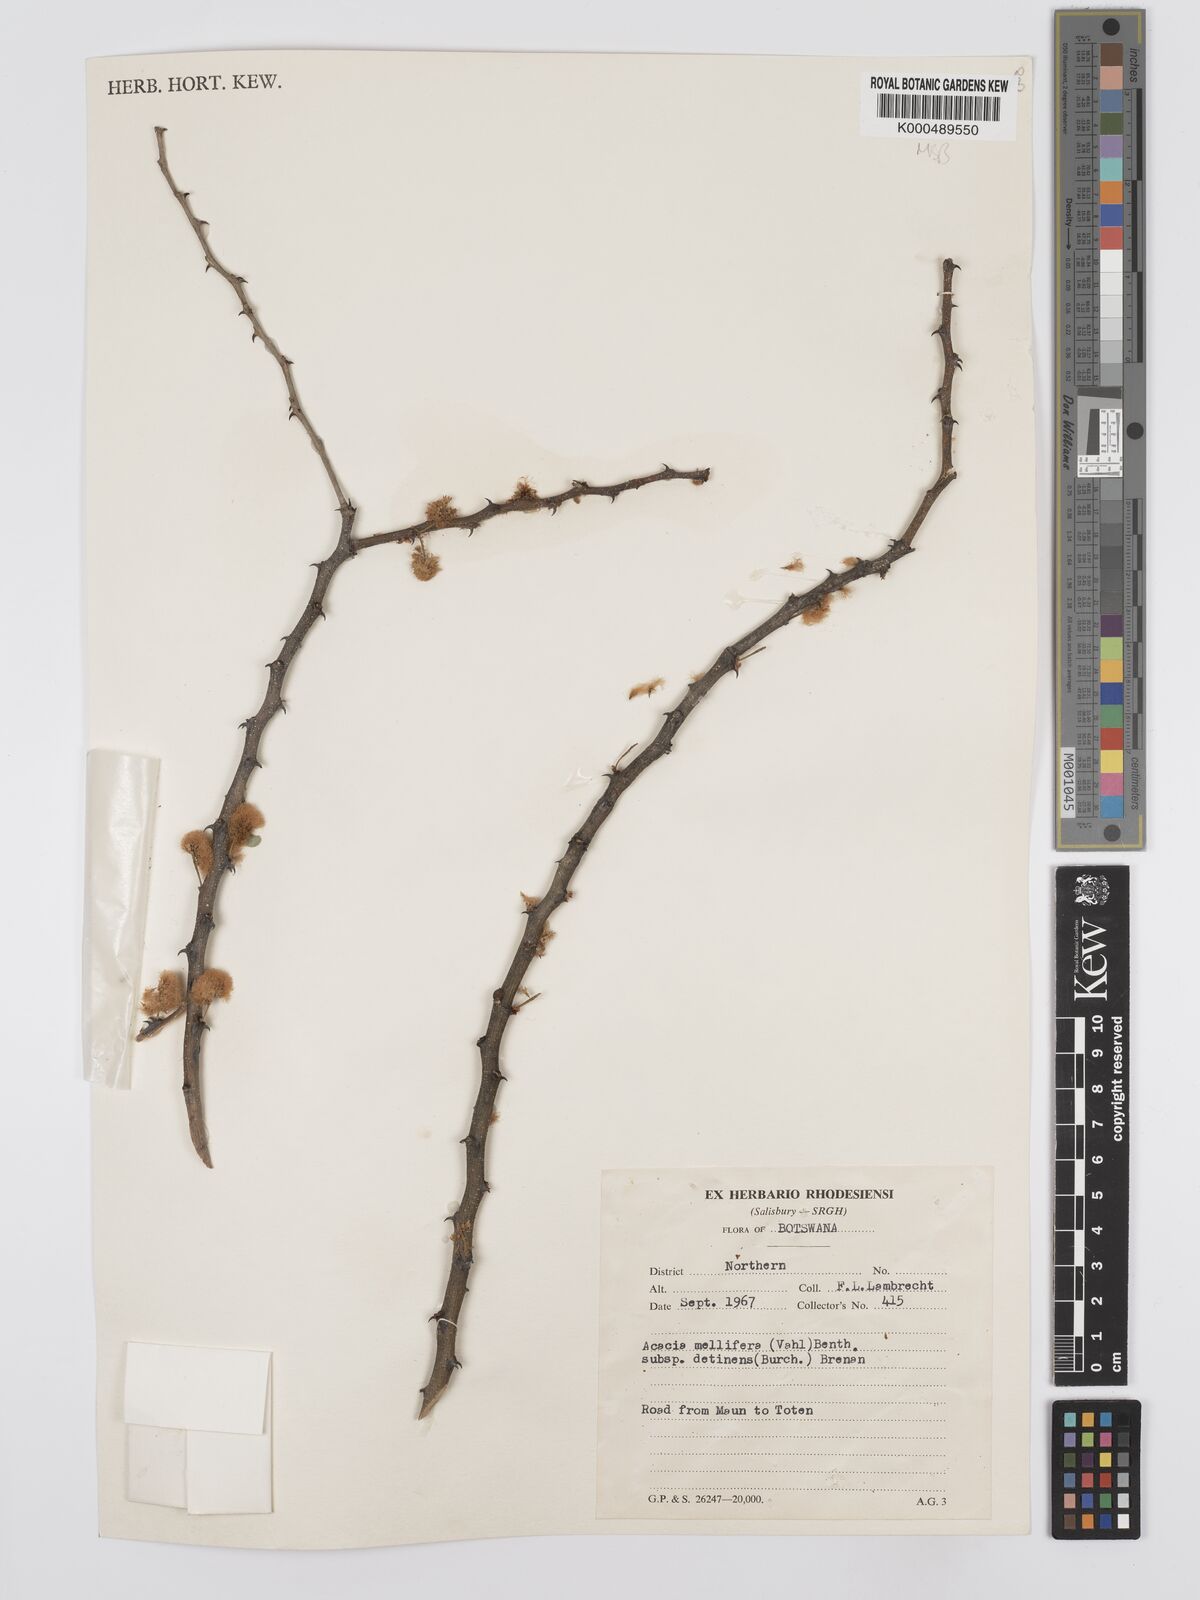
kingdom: Plantae
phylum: Tracheophyta
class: Magnoliopsida
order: Fabales
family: Fabaceae
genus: Senegalia
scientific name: Senegalia mellifera
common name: Hookthorn
